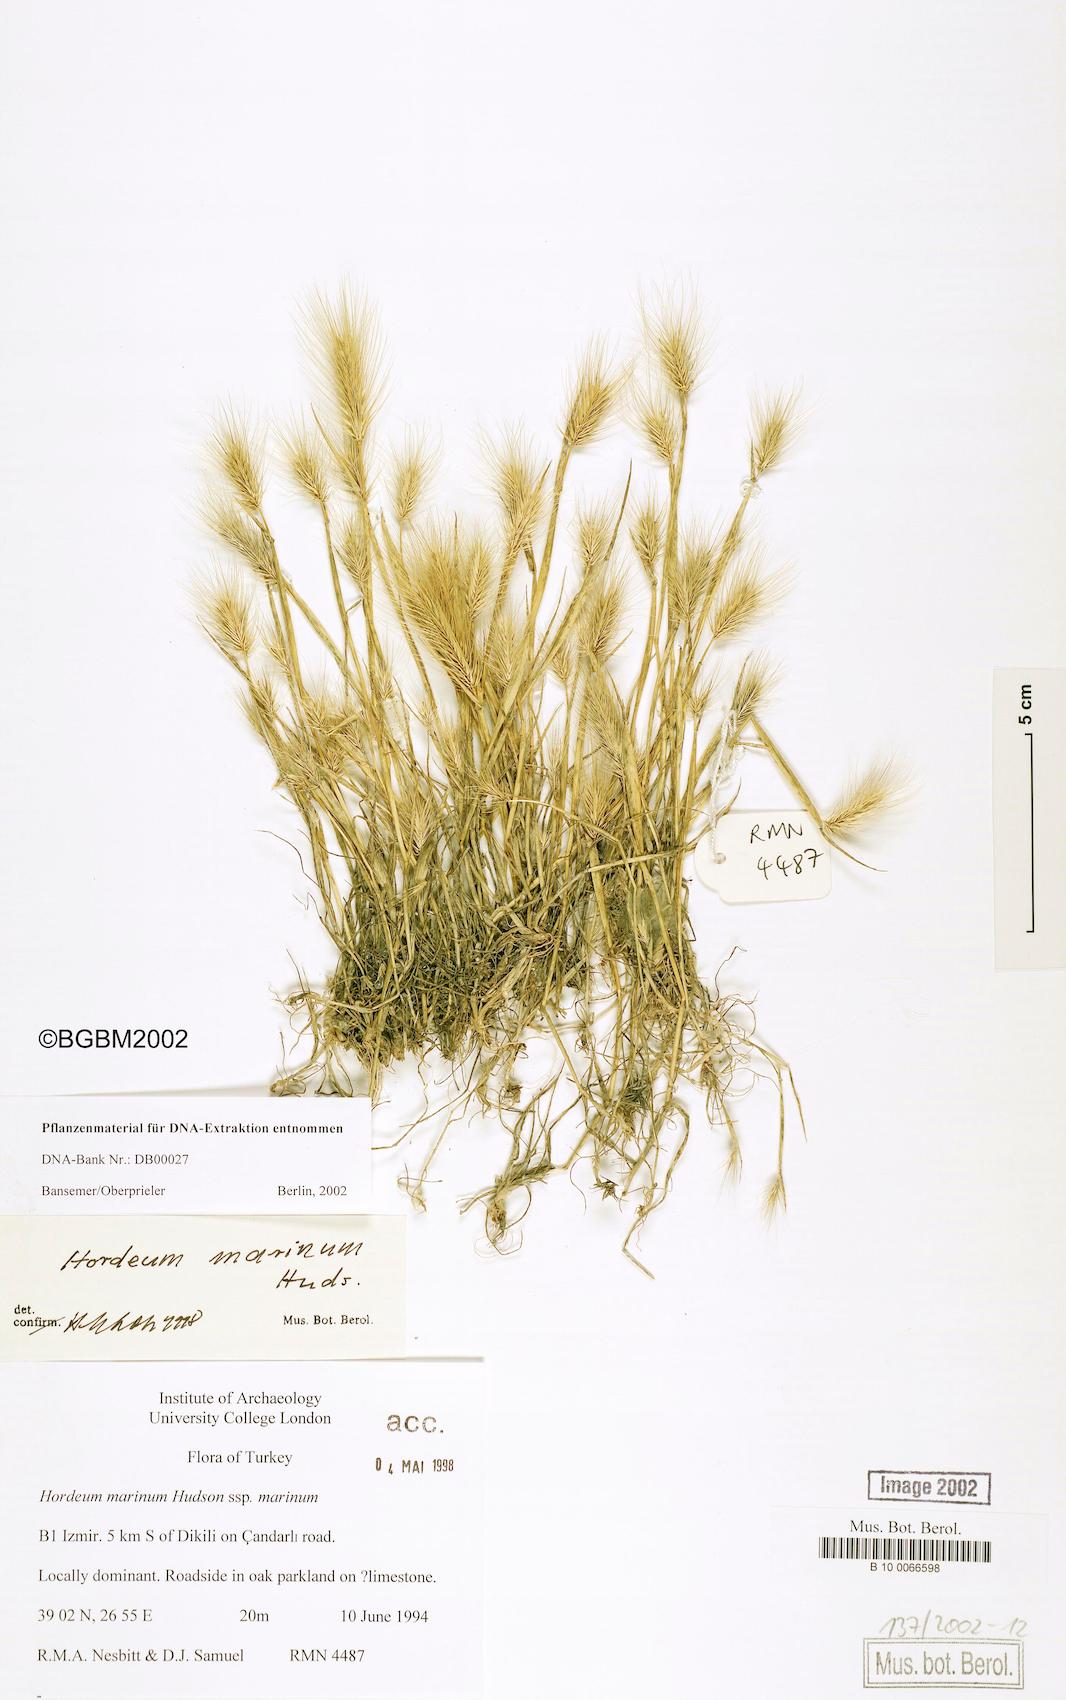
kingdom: Plantae
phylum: Tracheophyta
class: Liliopsida
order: Poales
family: Poaceae
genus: Hordeum
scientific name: Hordeum marinum
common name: Sea barley
